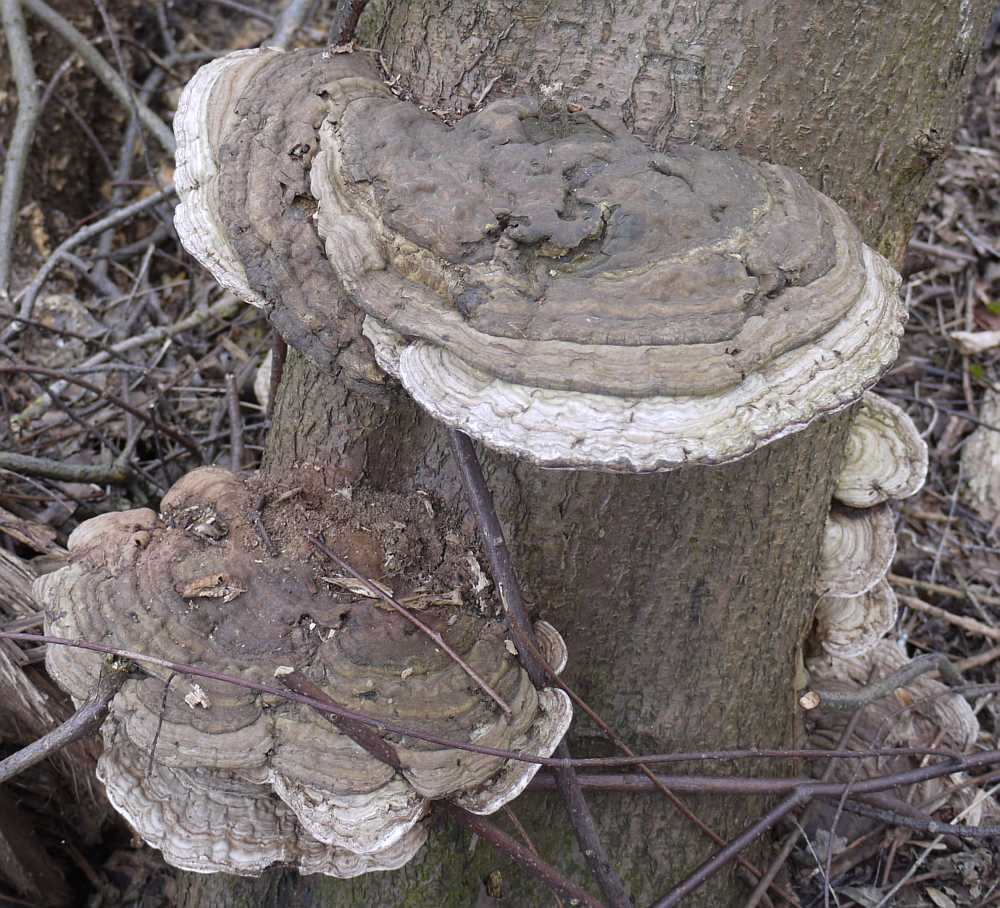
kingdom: Fungi
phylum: Basidiomycota
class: Agaricomycetes
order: Polyporales
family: Polyporaceae
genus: Ganoderma
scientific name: Ganoderma applanatum
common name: flad lakporesvamp
